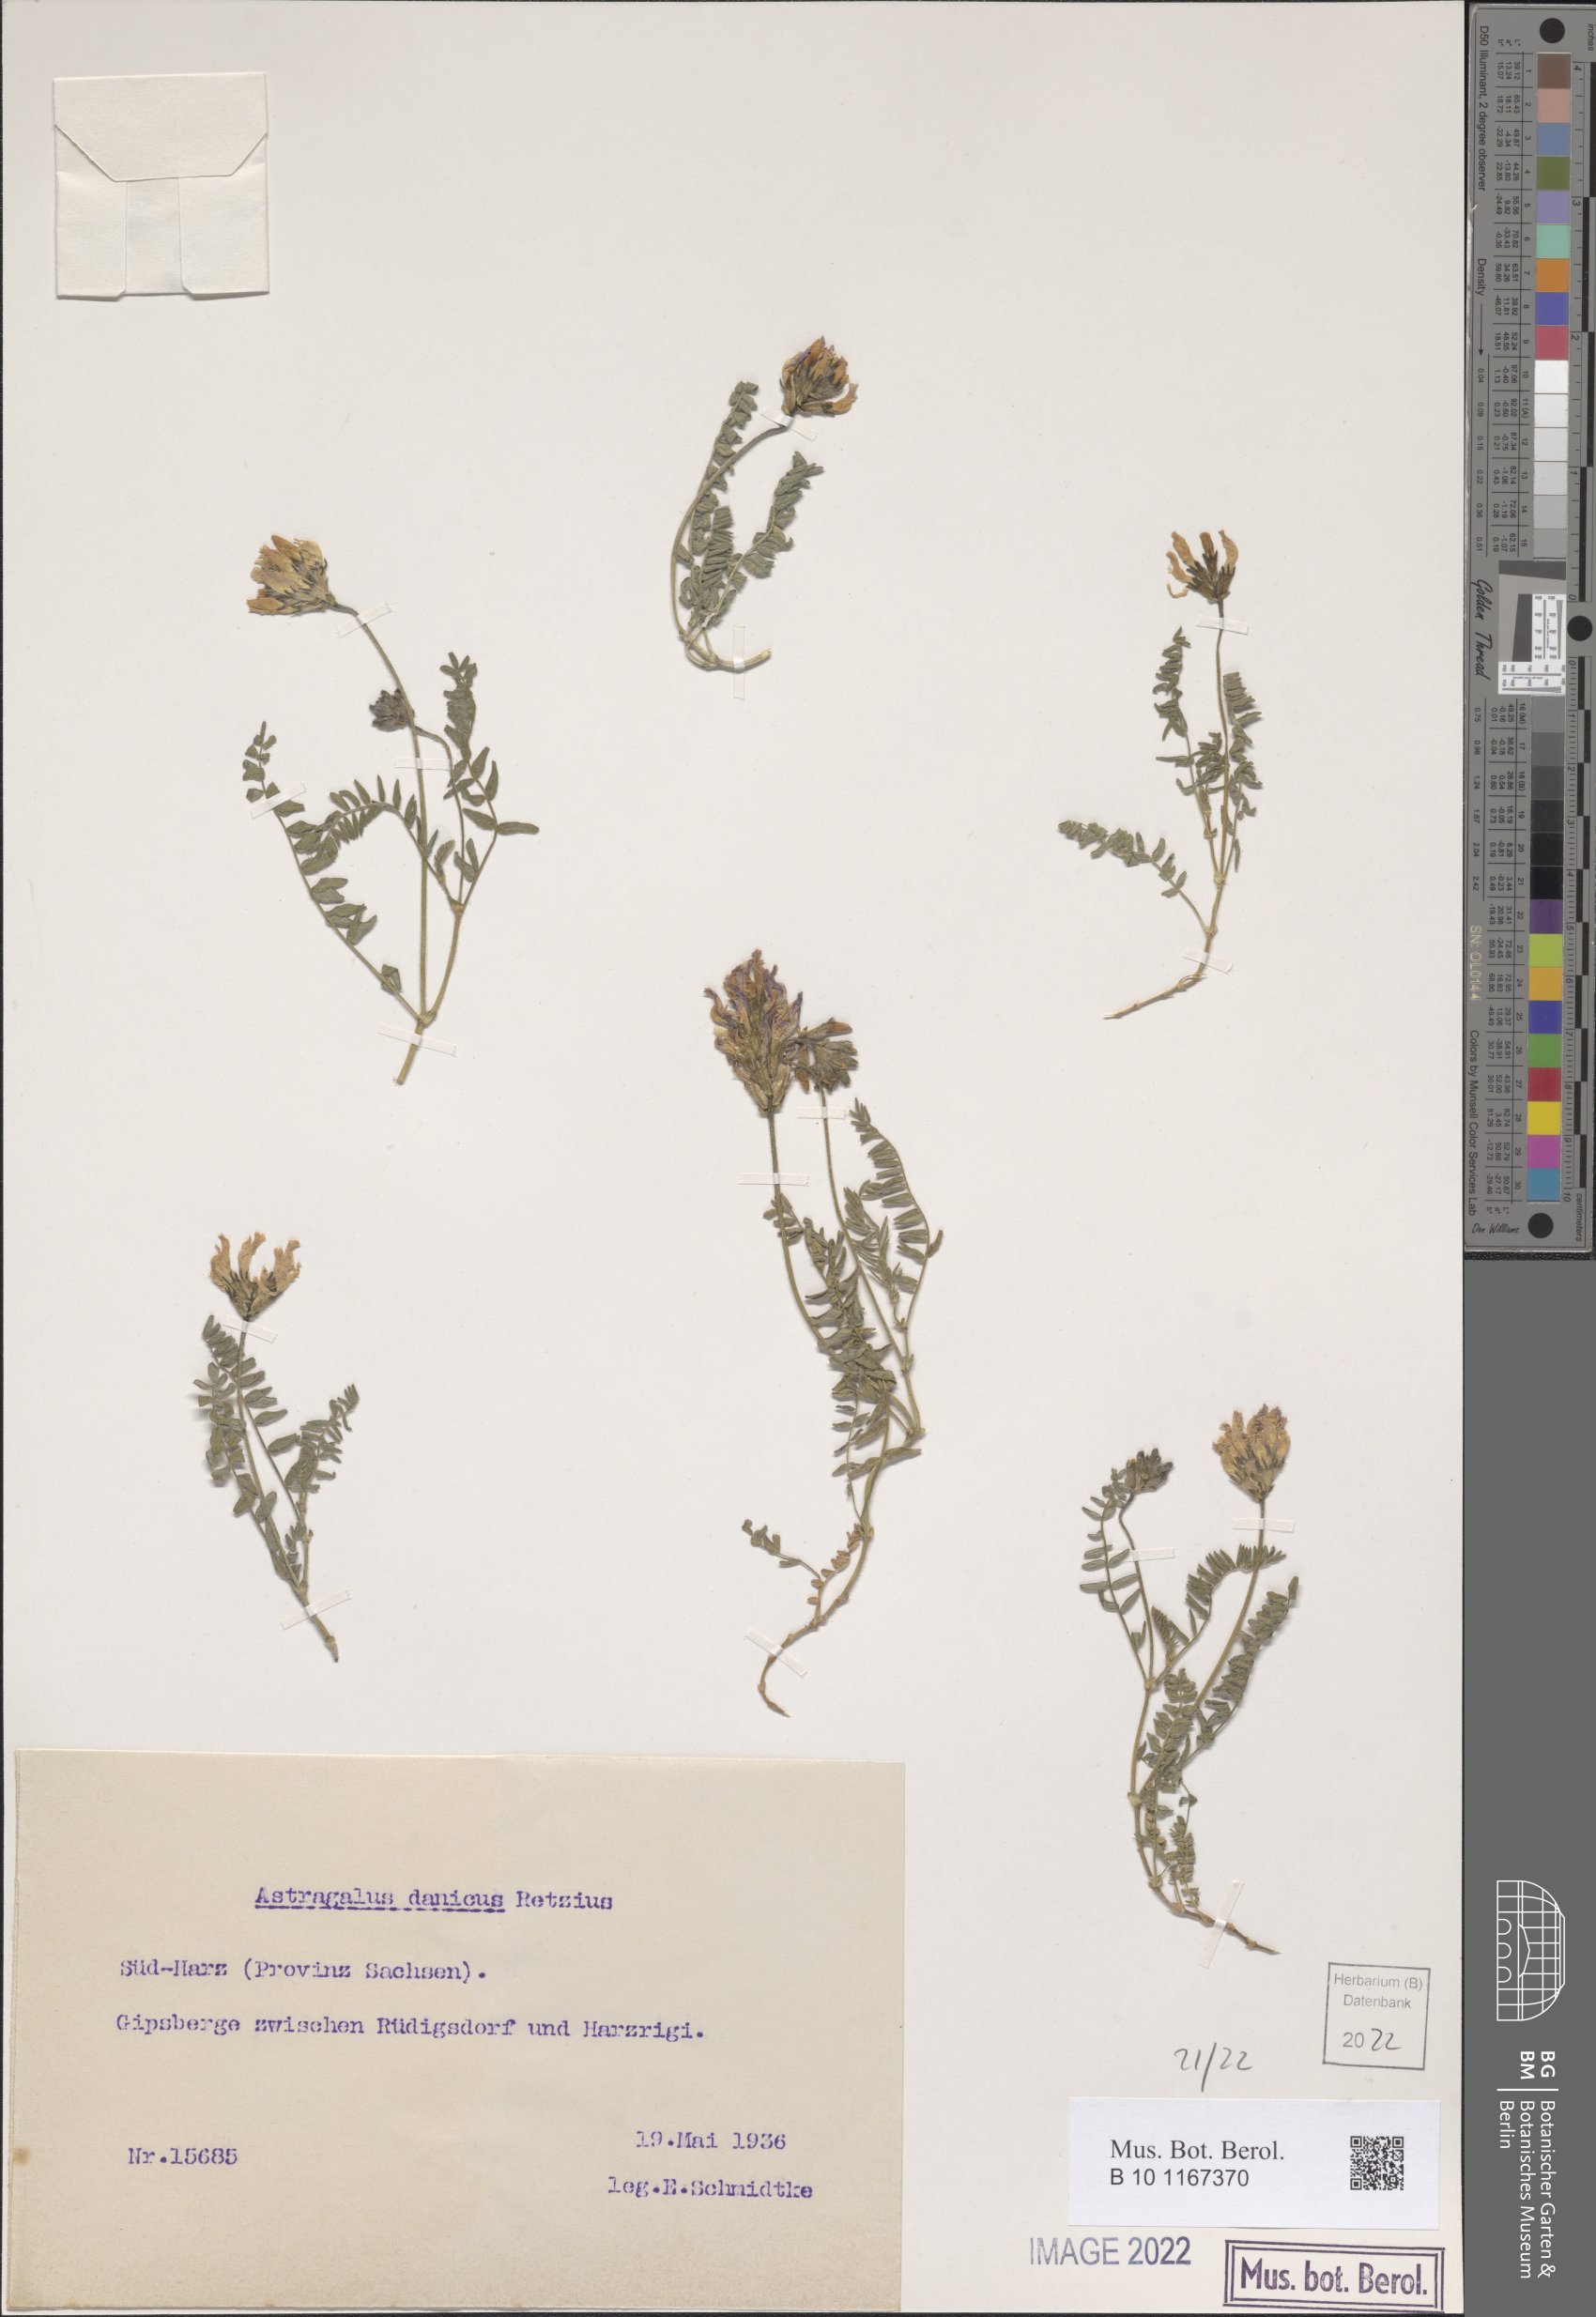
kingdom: Plantae
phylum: Tracheophyta
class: Magnoliopsida
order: Fabales
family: Fabaceae
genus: Astragalus
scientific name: Astragalus danicus
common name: Purple milk-vetch
